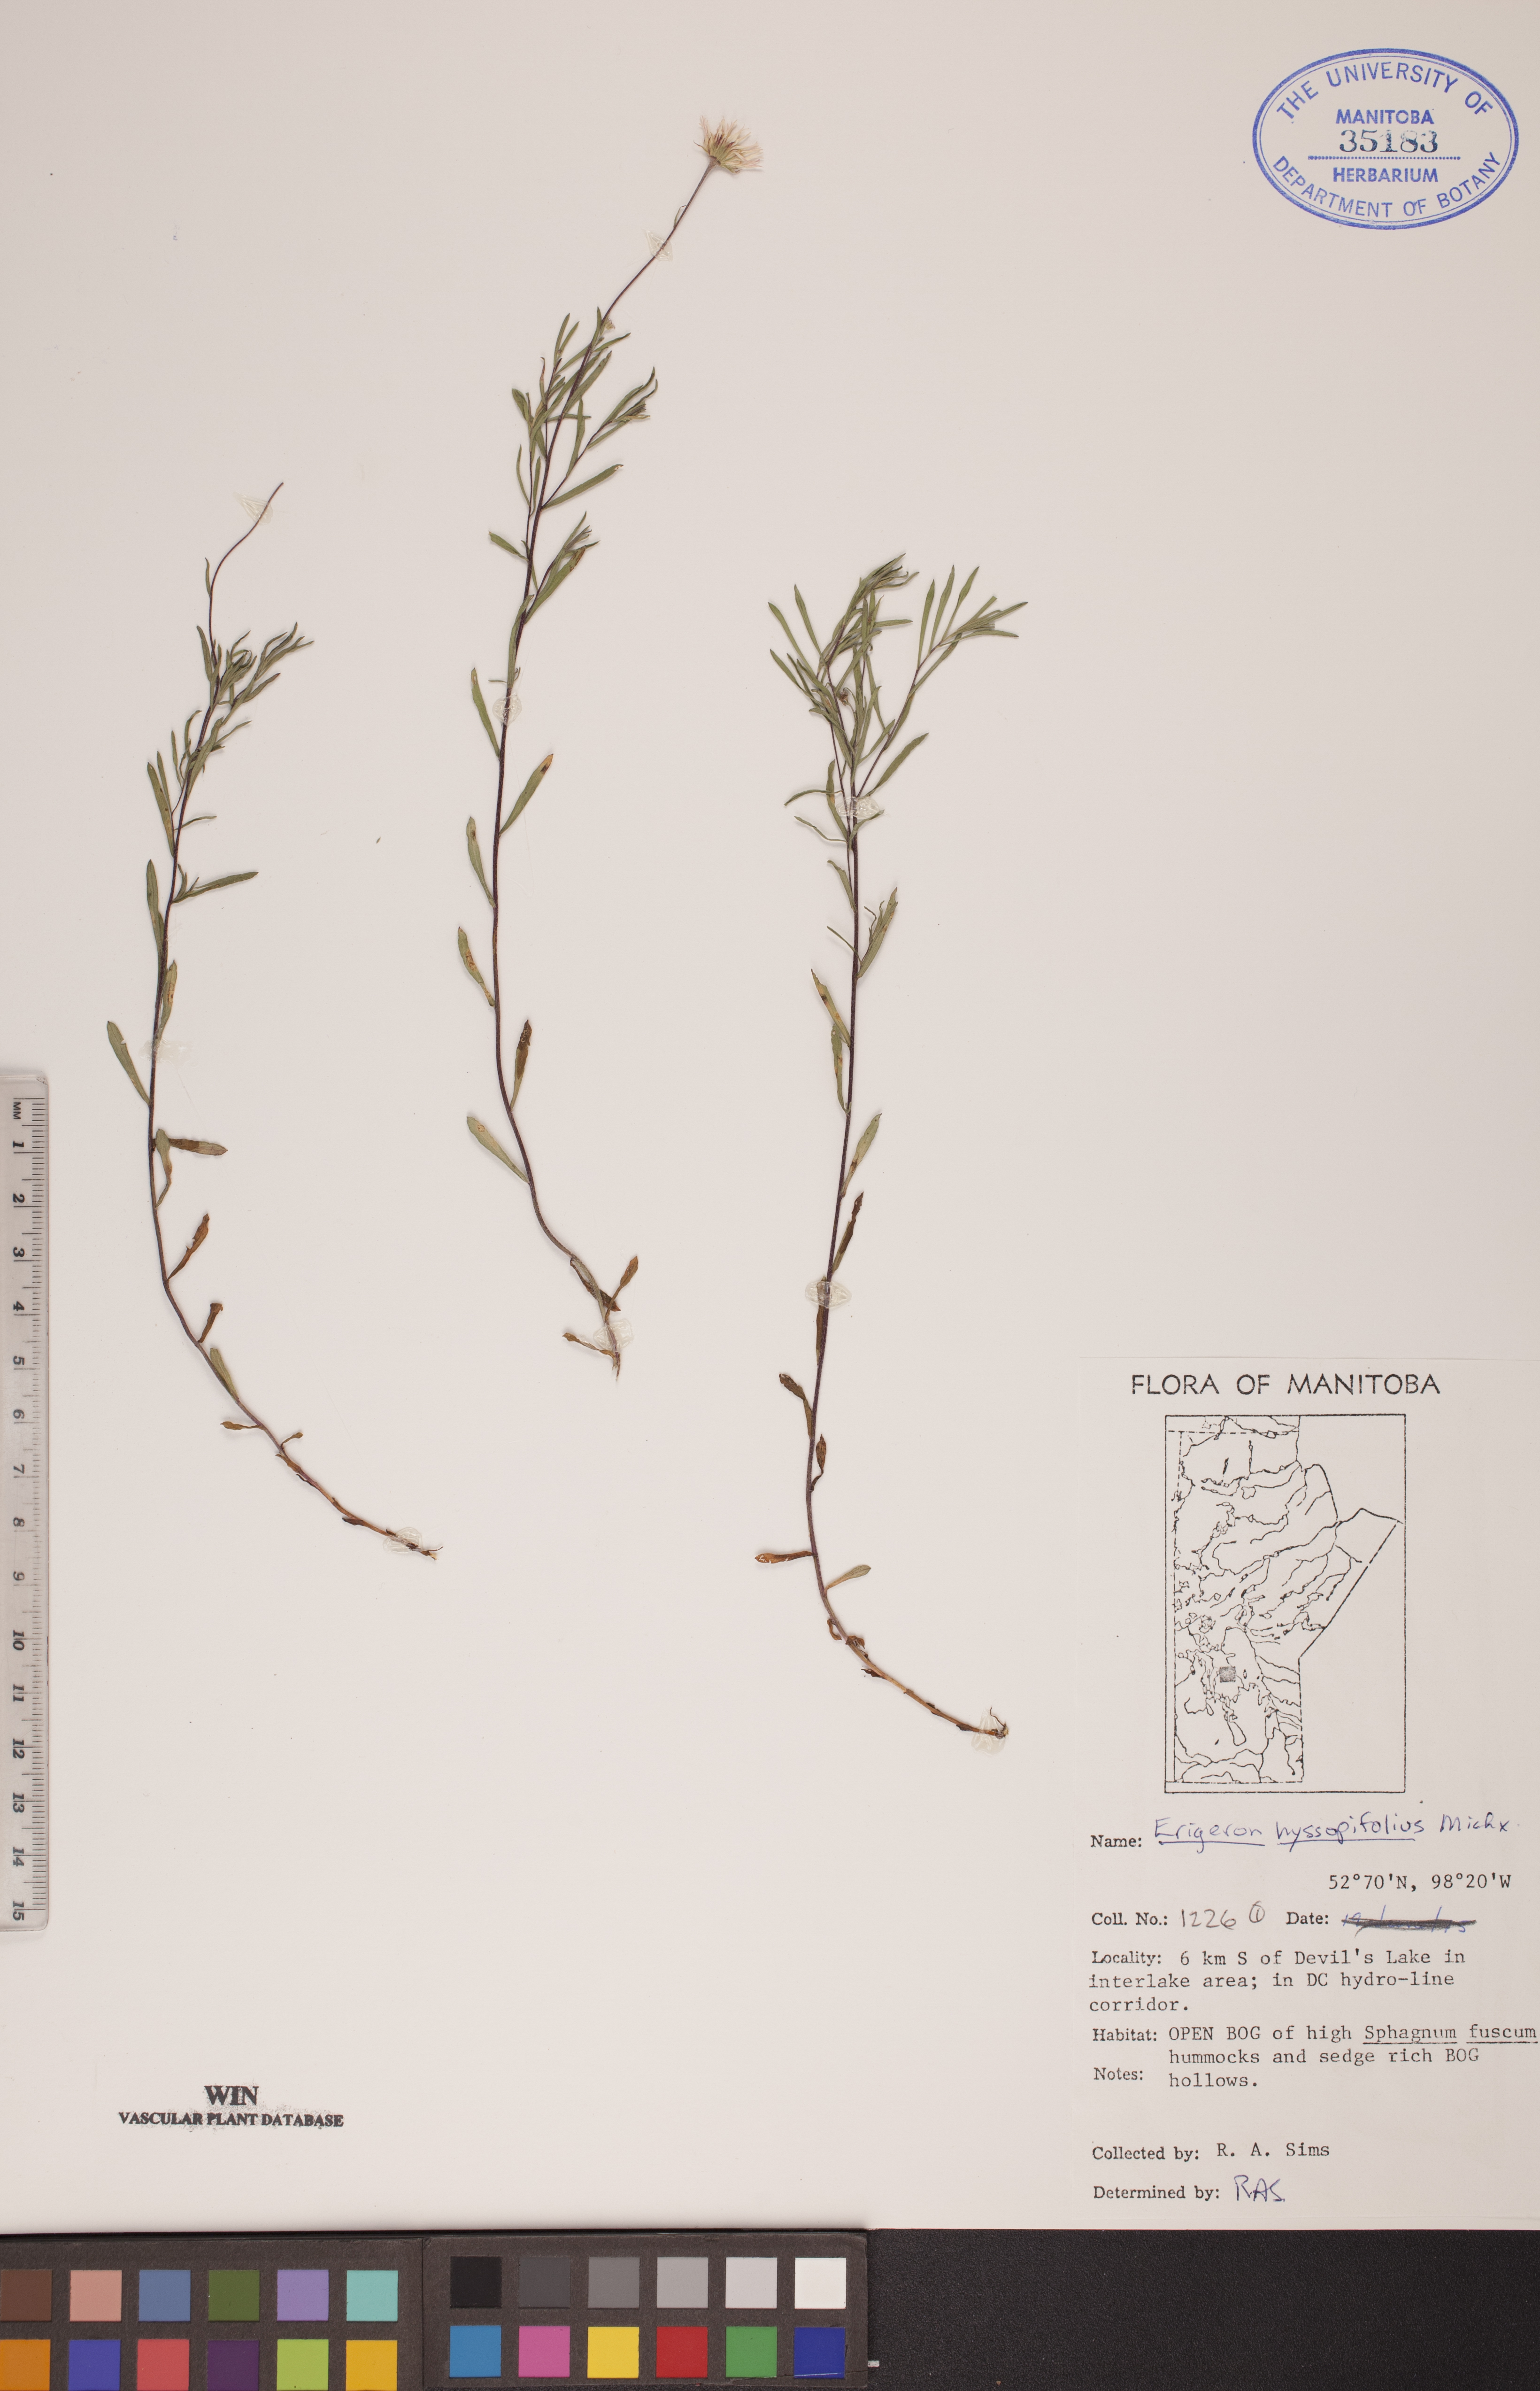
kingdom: Plantae
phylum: Tracheophyta
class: Magnoliopsida
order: Asterales
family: Asteraceae
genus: Erigeron
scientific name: Erigeron hyssopifolius
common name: Daisy fleabane
